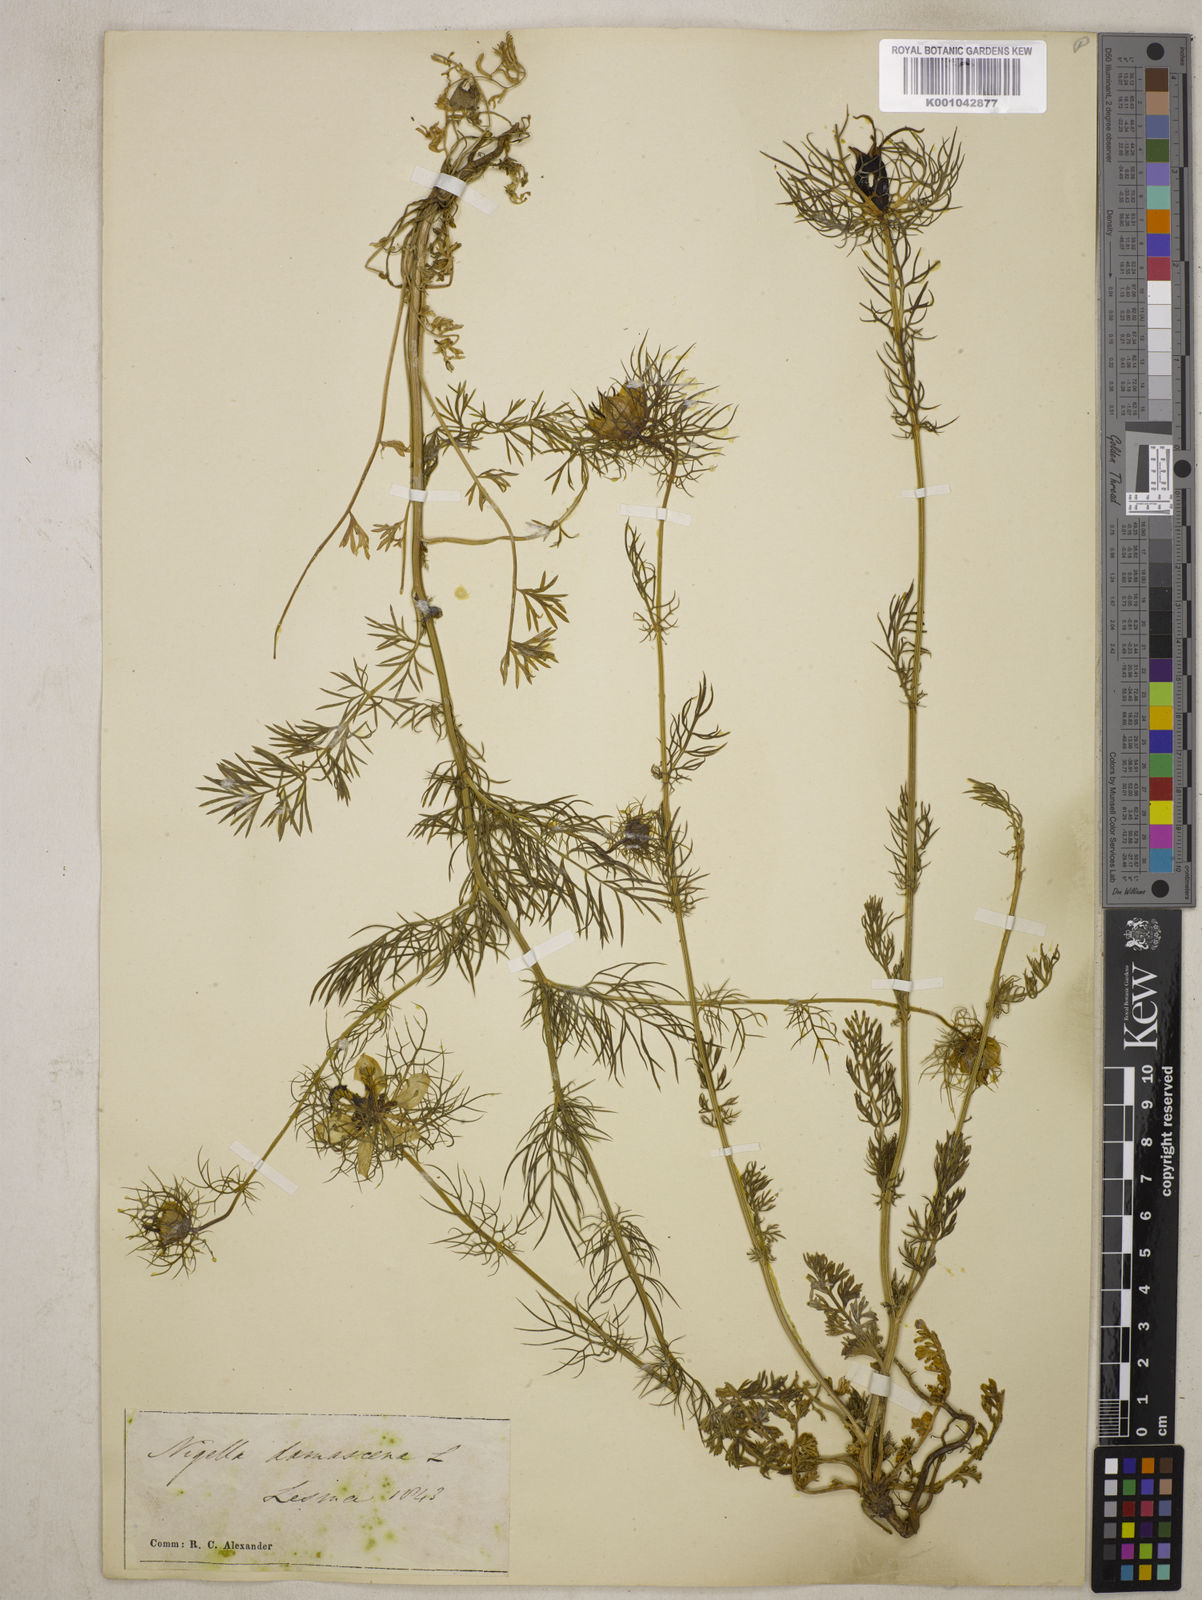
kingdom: Plantae
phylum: Tracheophyta
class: Magnoliopsida
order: Ranunculales
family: Ranunculaceae
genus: Nigella
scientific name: Nigella damascena
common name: Love-in-a-mist
